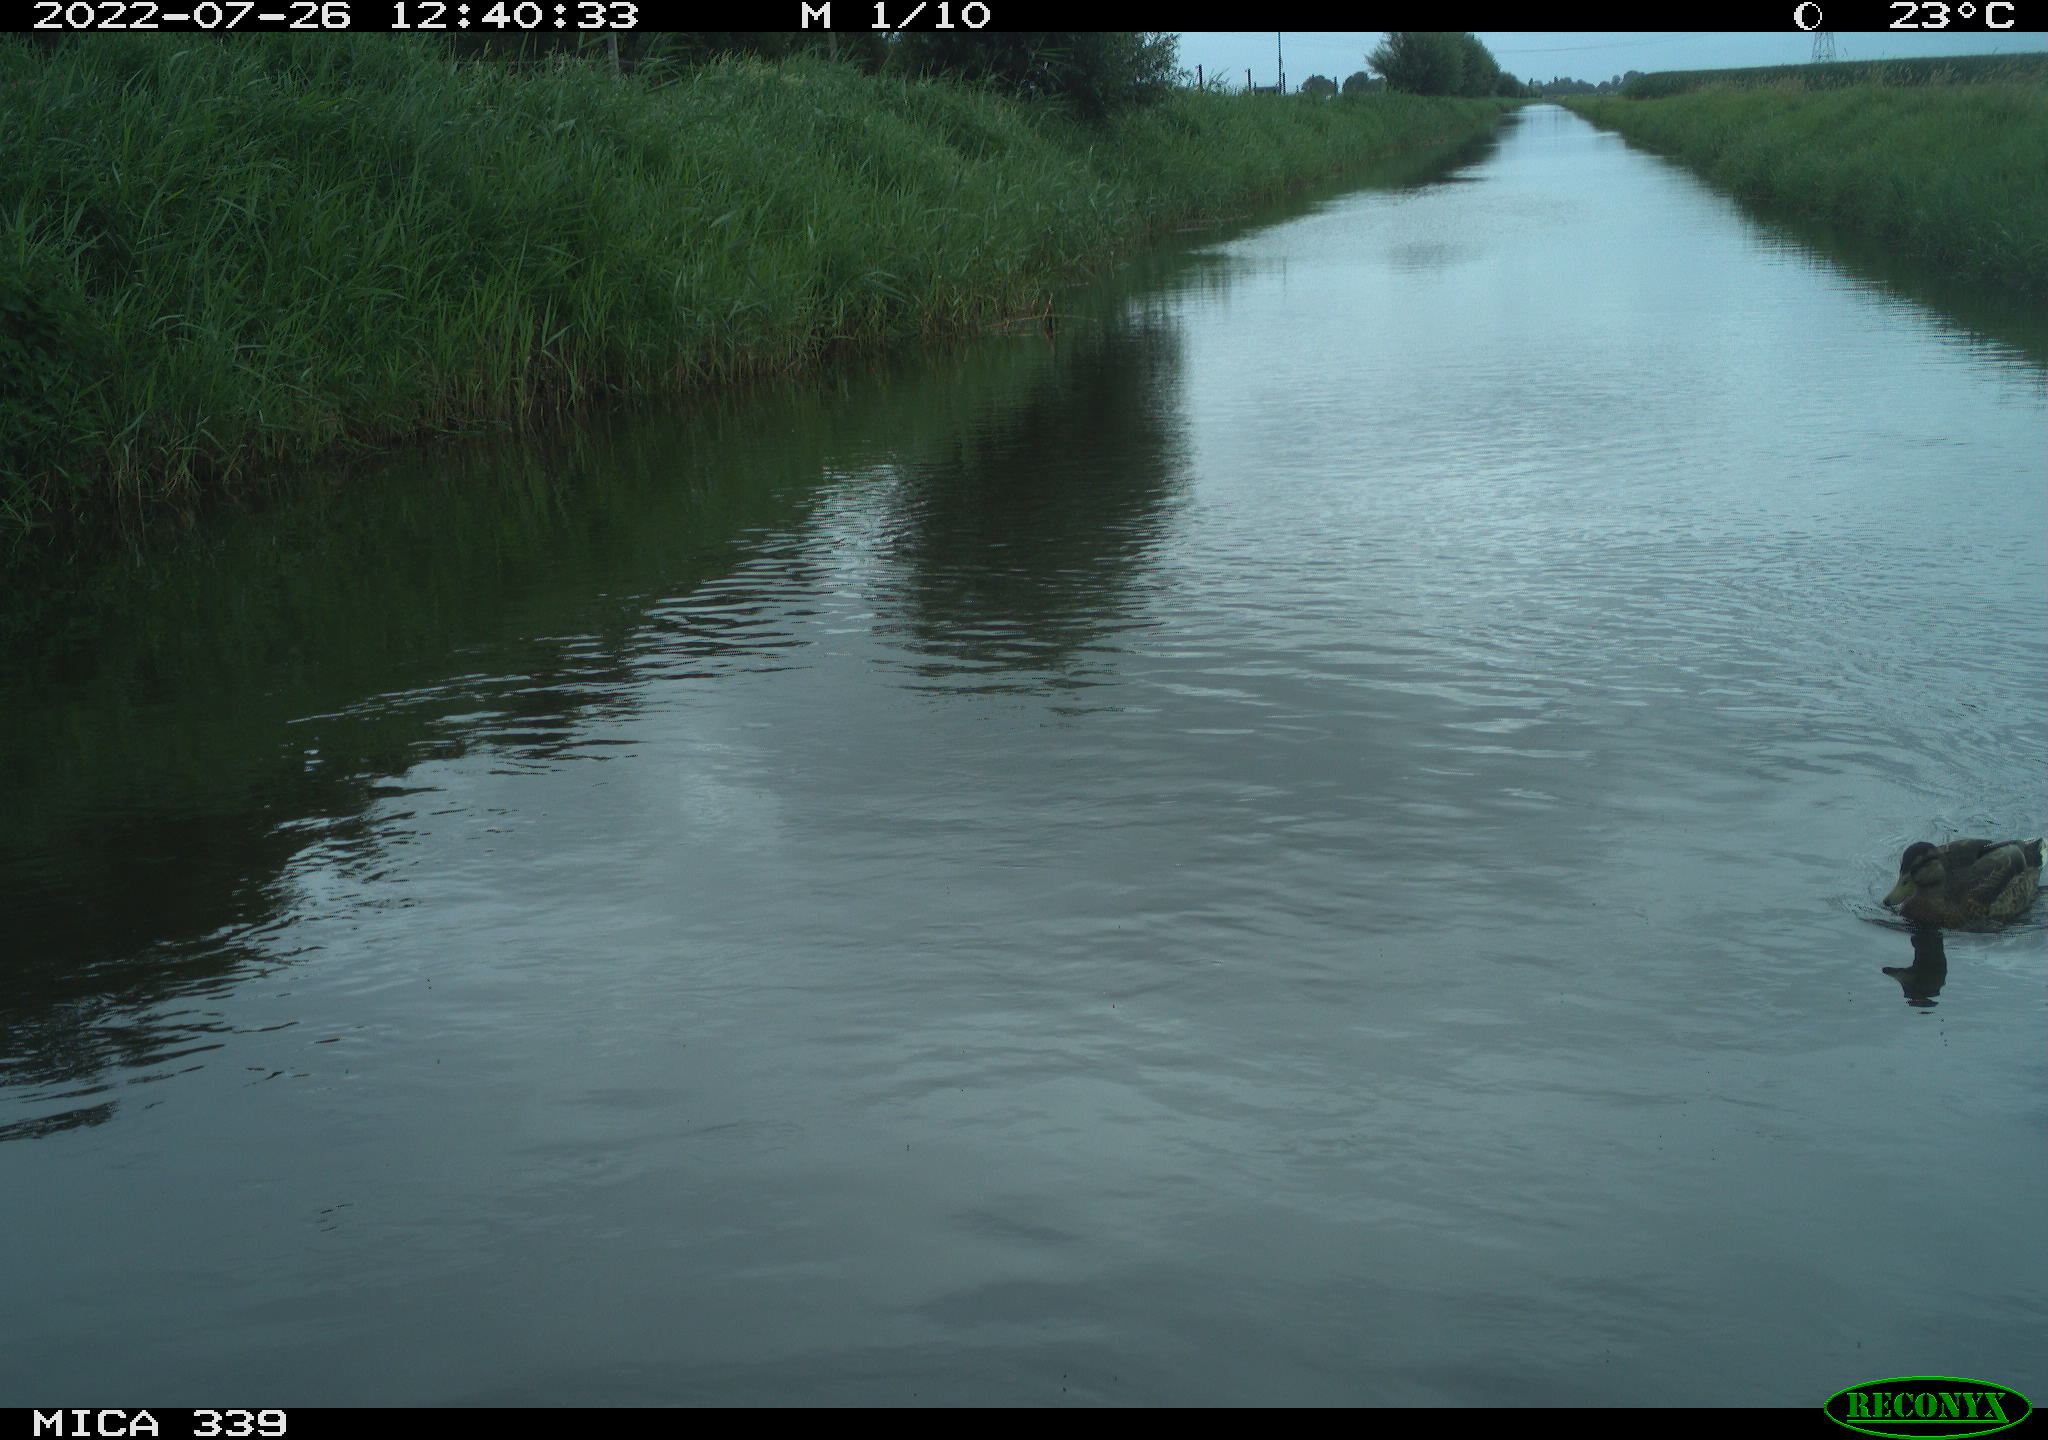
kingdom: Animalia
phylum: Chordata
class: Aves
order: Anseriformes
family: Anatidae
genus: Anas
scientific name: Anas platyrhynchos
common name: Mallard
